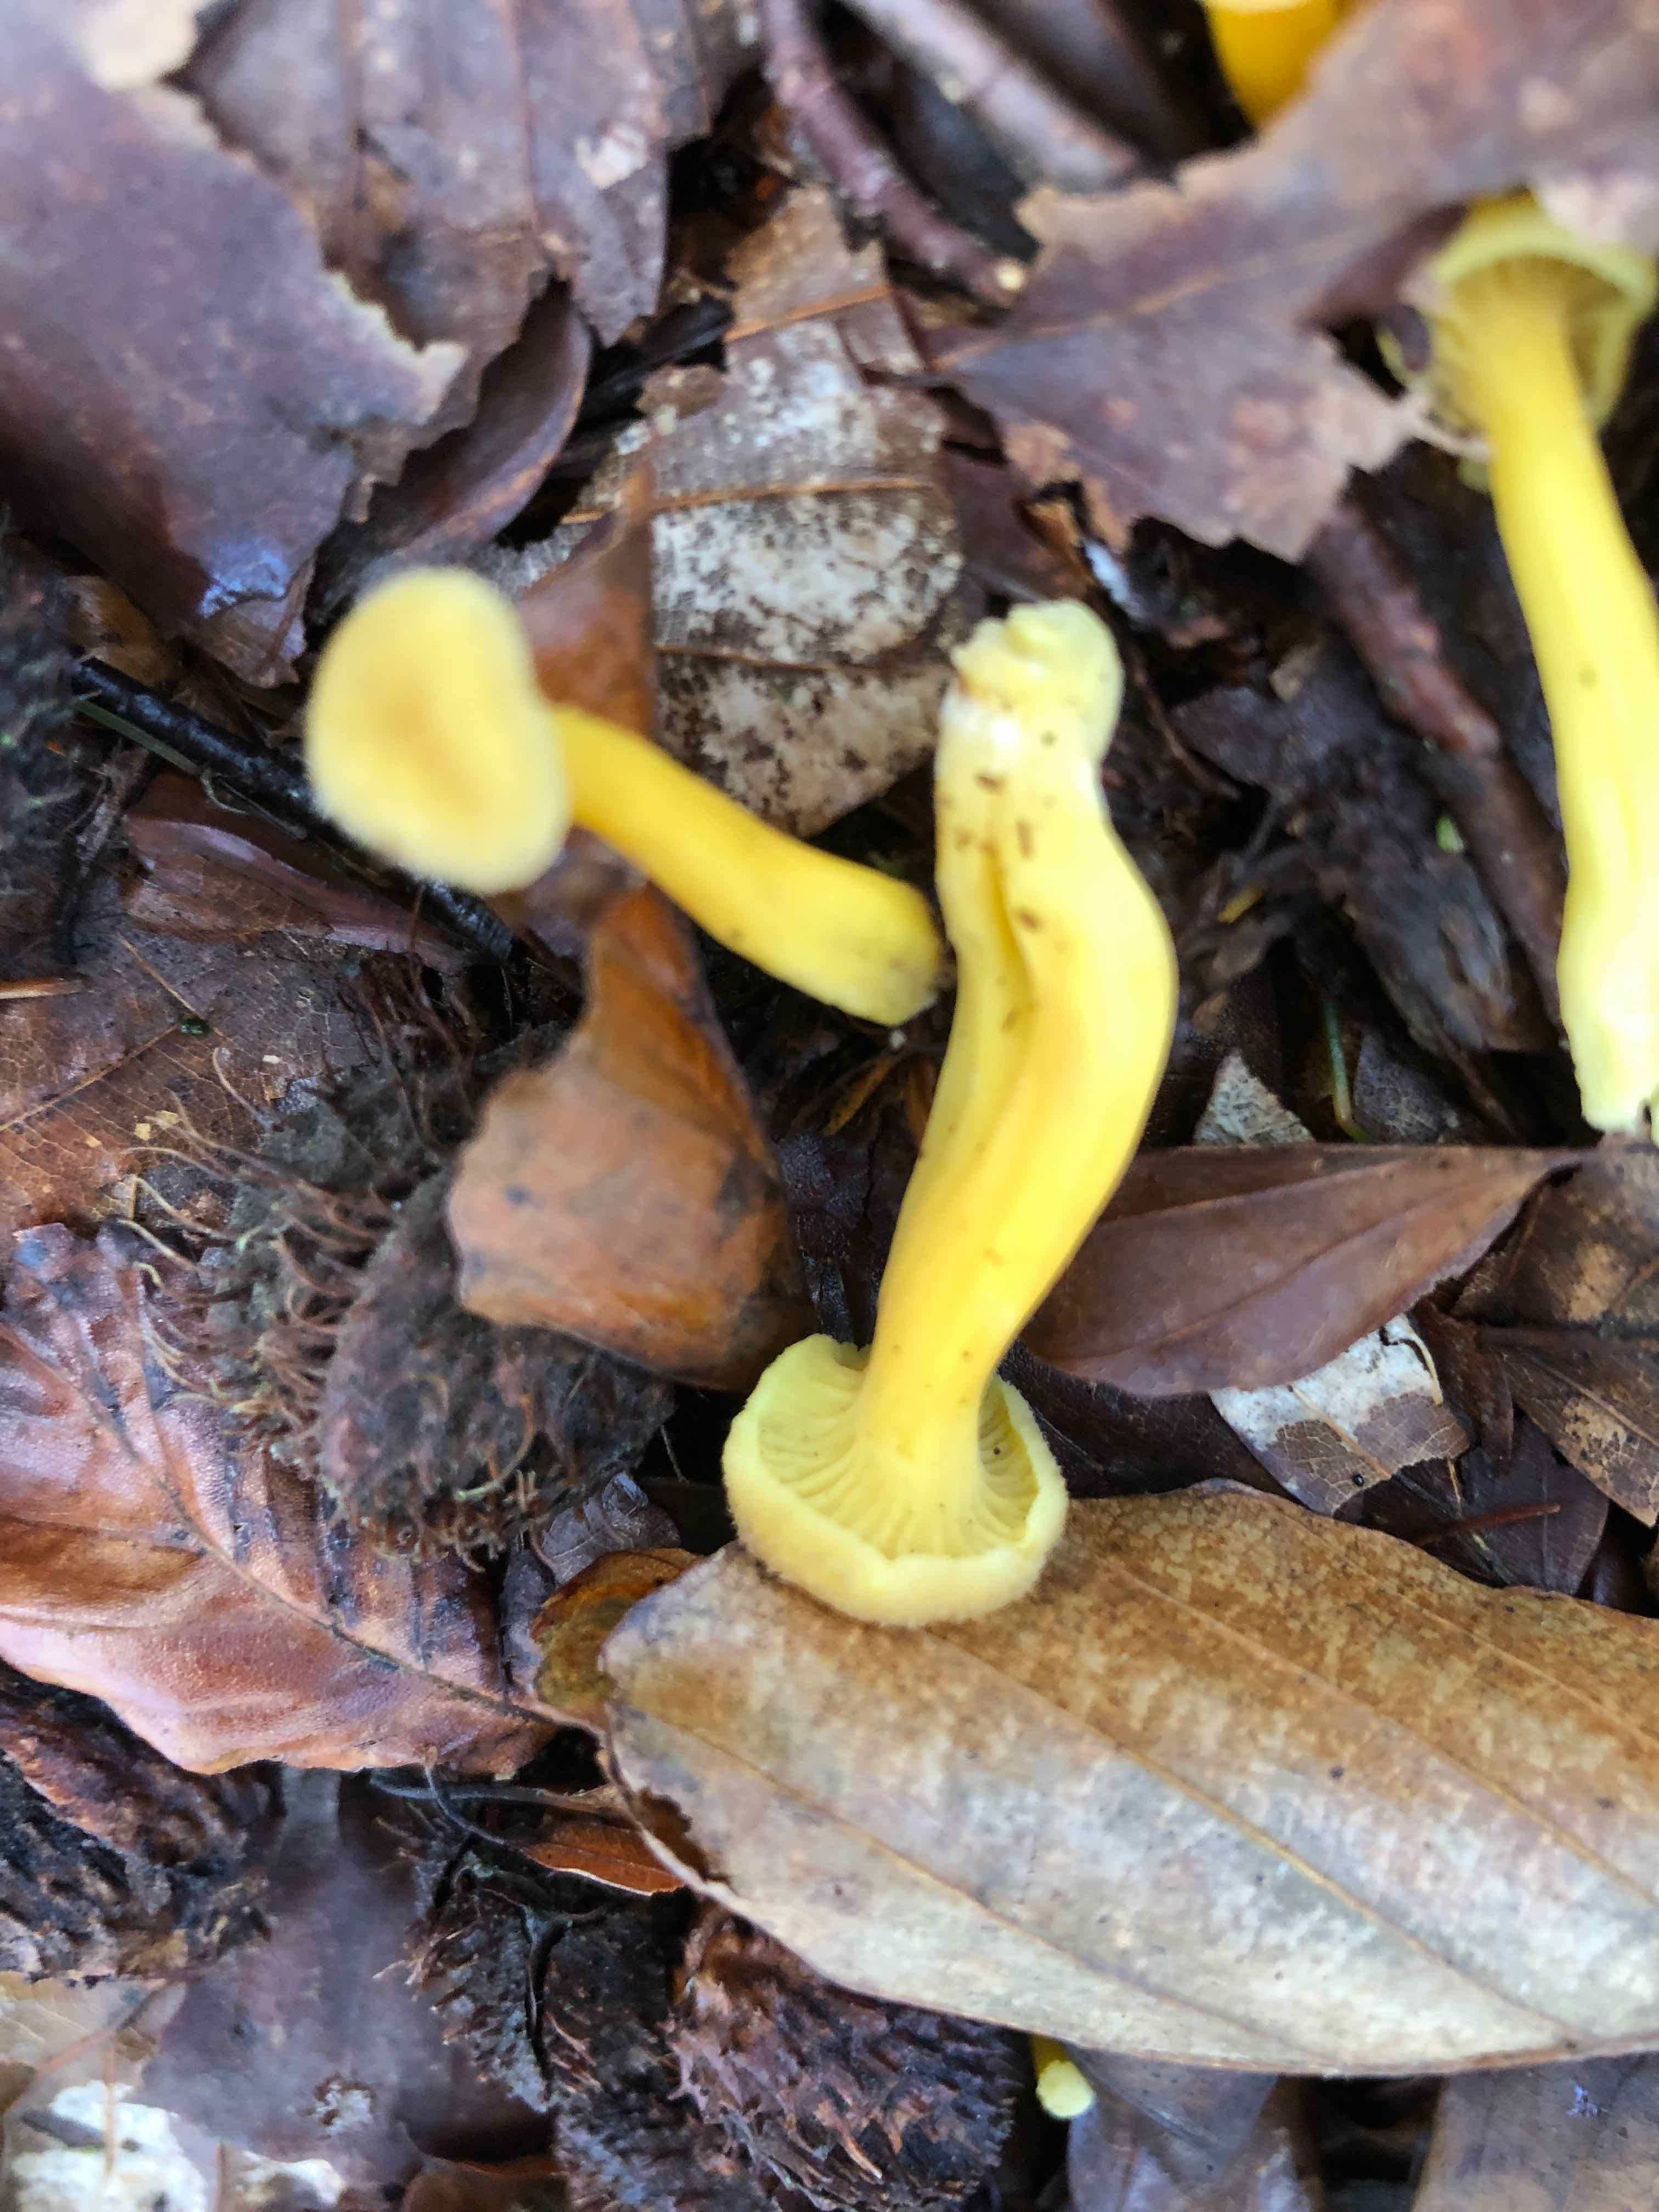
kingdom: Fungi
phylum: Basidiomycota
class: Agaricomycetes
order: Cantharellales
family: Hydnaceae
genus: Craterellus
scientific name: Craterellus tubaeformis
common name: tragt-kantarel
